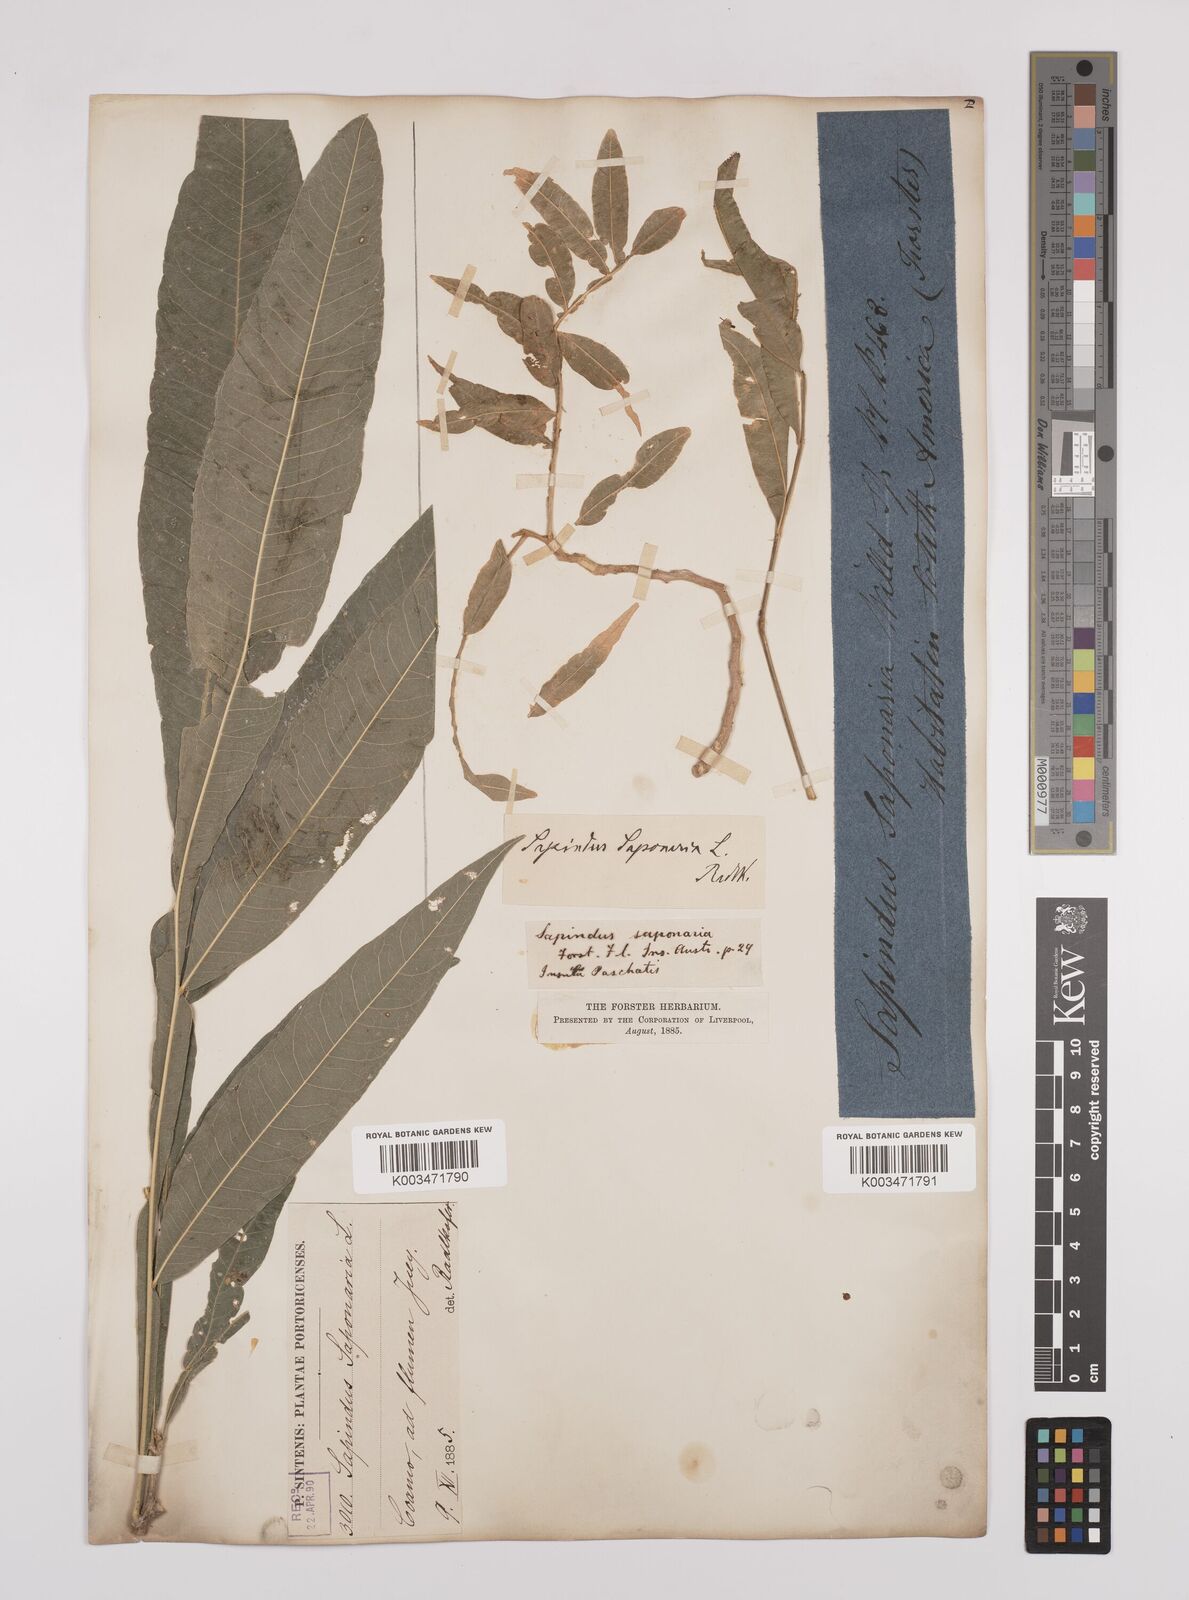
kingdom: Plantae
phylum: Tracheophyta
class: Magnoliopsida
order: Sapindales
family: Sapindaceae
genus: Sapindus
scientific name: Sapindus saponaria
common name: Wingleaf soapberry
